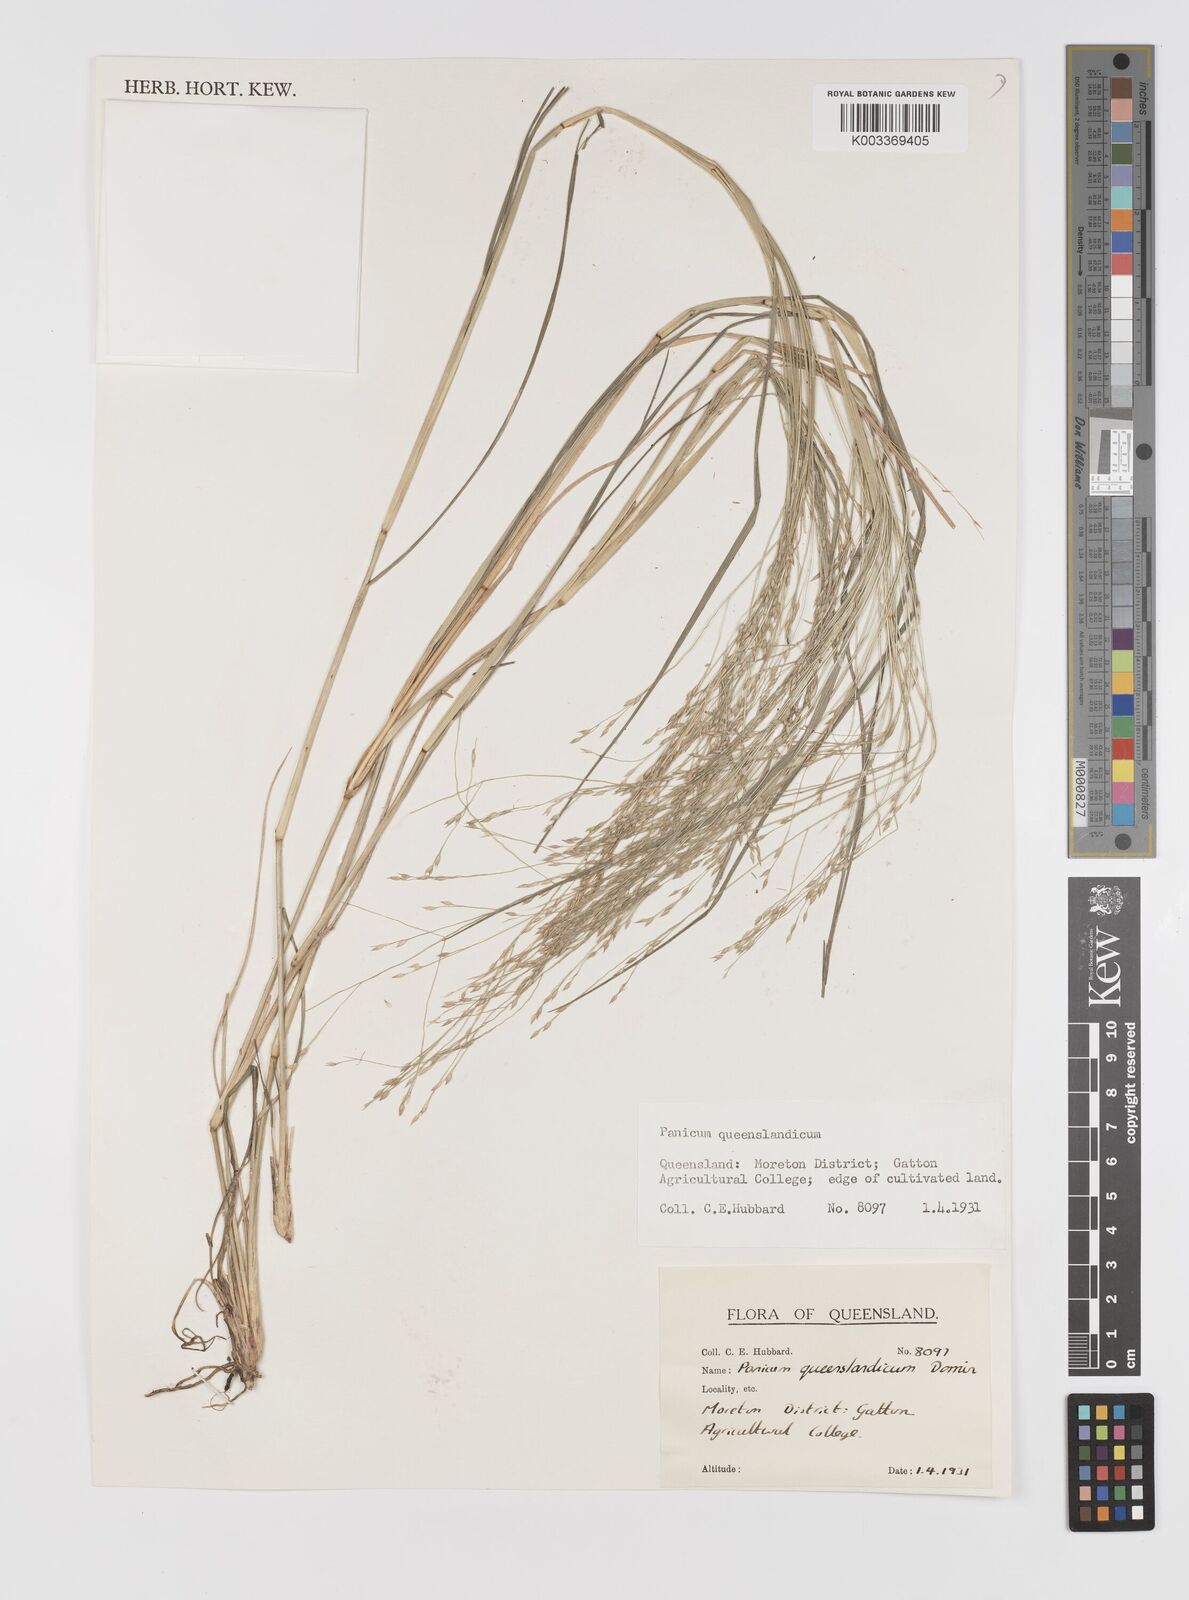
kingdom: Plantae
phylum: Tracheophyta
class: Liliopsida
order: Poales
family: Poaceae
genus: Panicum
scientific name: Panicum queenslandicum
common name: Yabila grass
